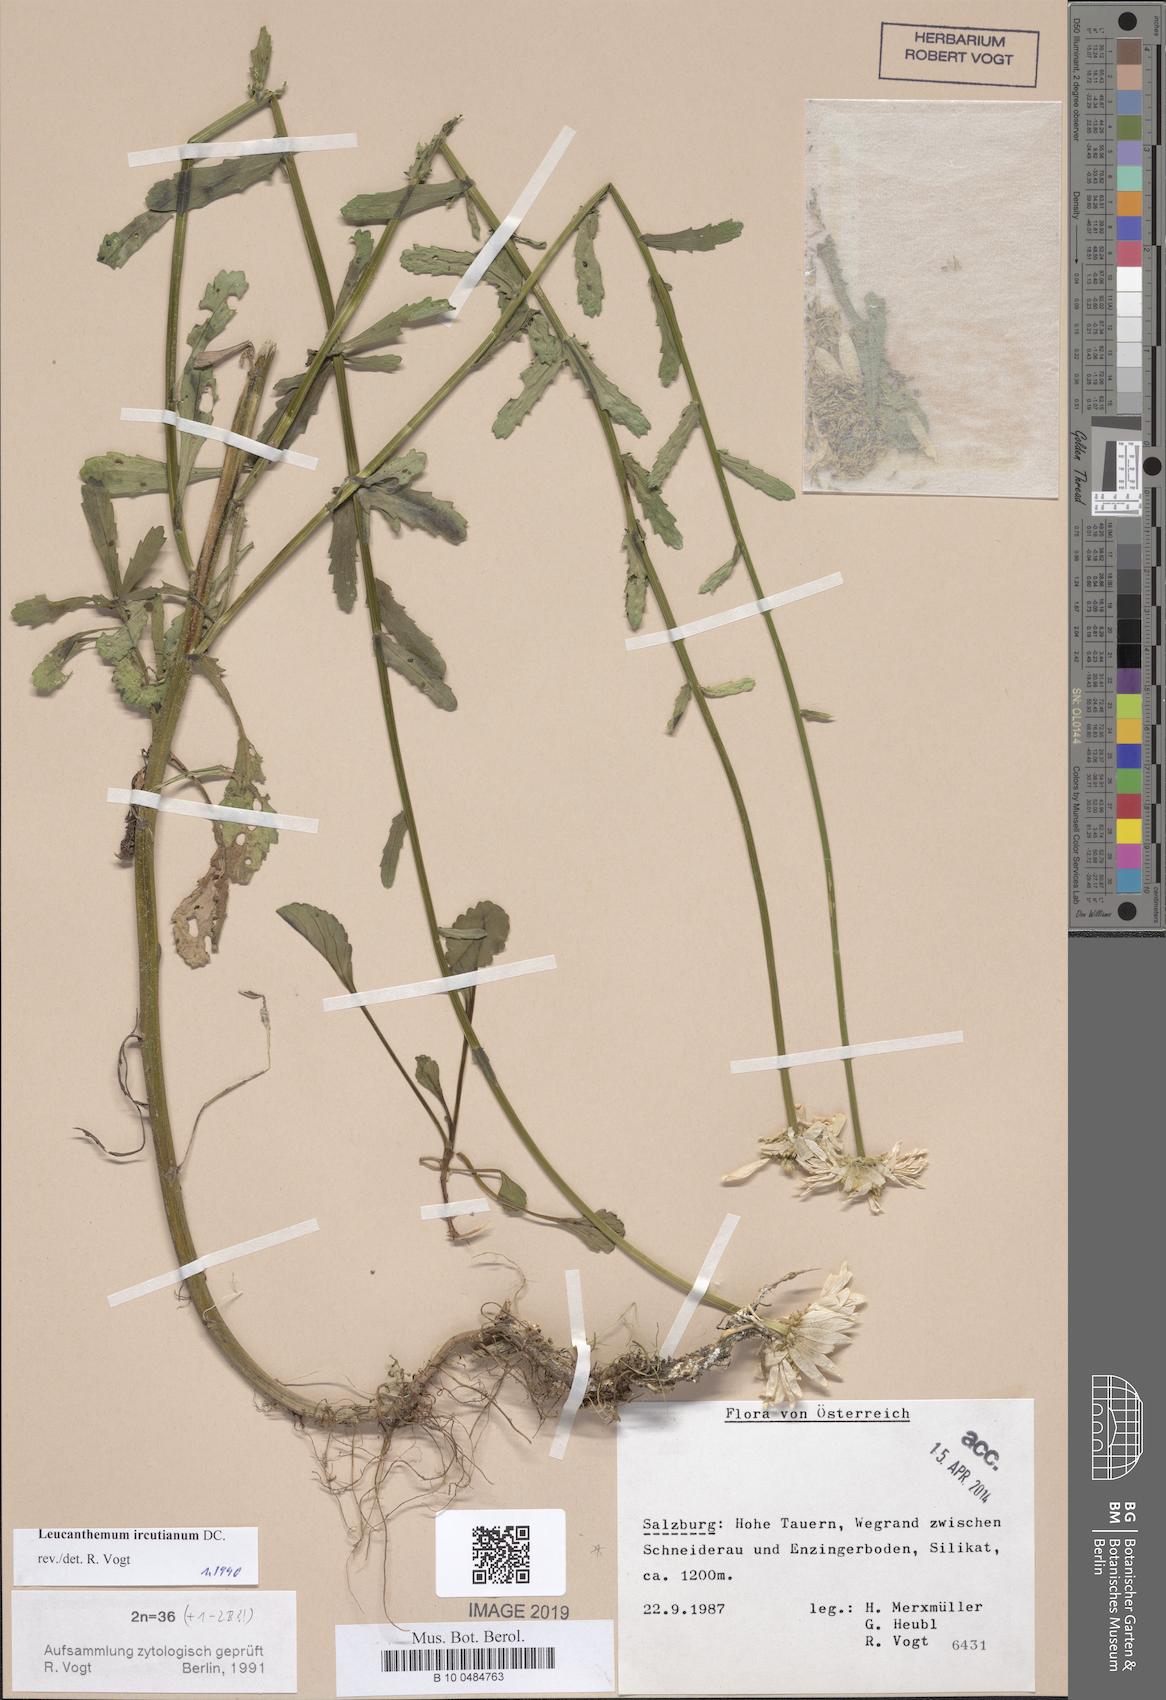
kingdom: Plantae
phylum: Tracheophyta
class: Magnoliopsida
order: Asterales
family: Asteraceae
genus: Leucanthemum
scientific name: Leucanthemum ircutianum
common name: Daisy
